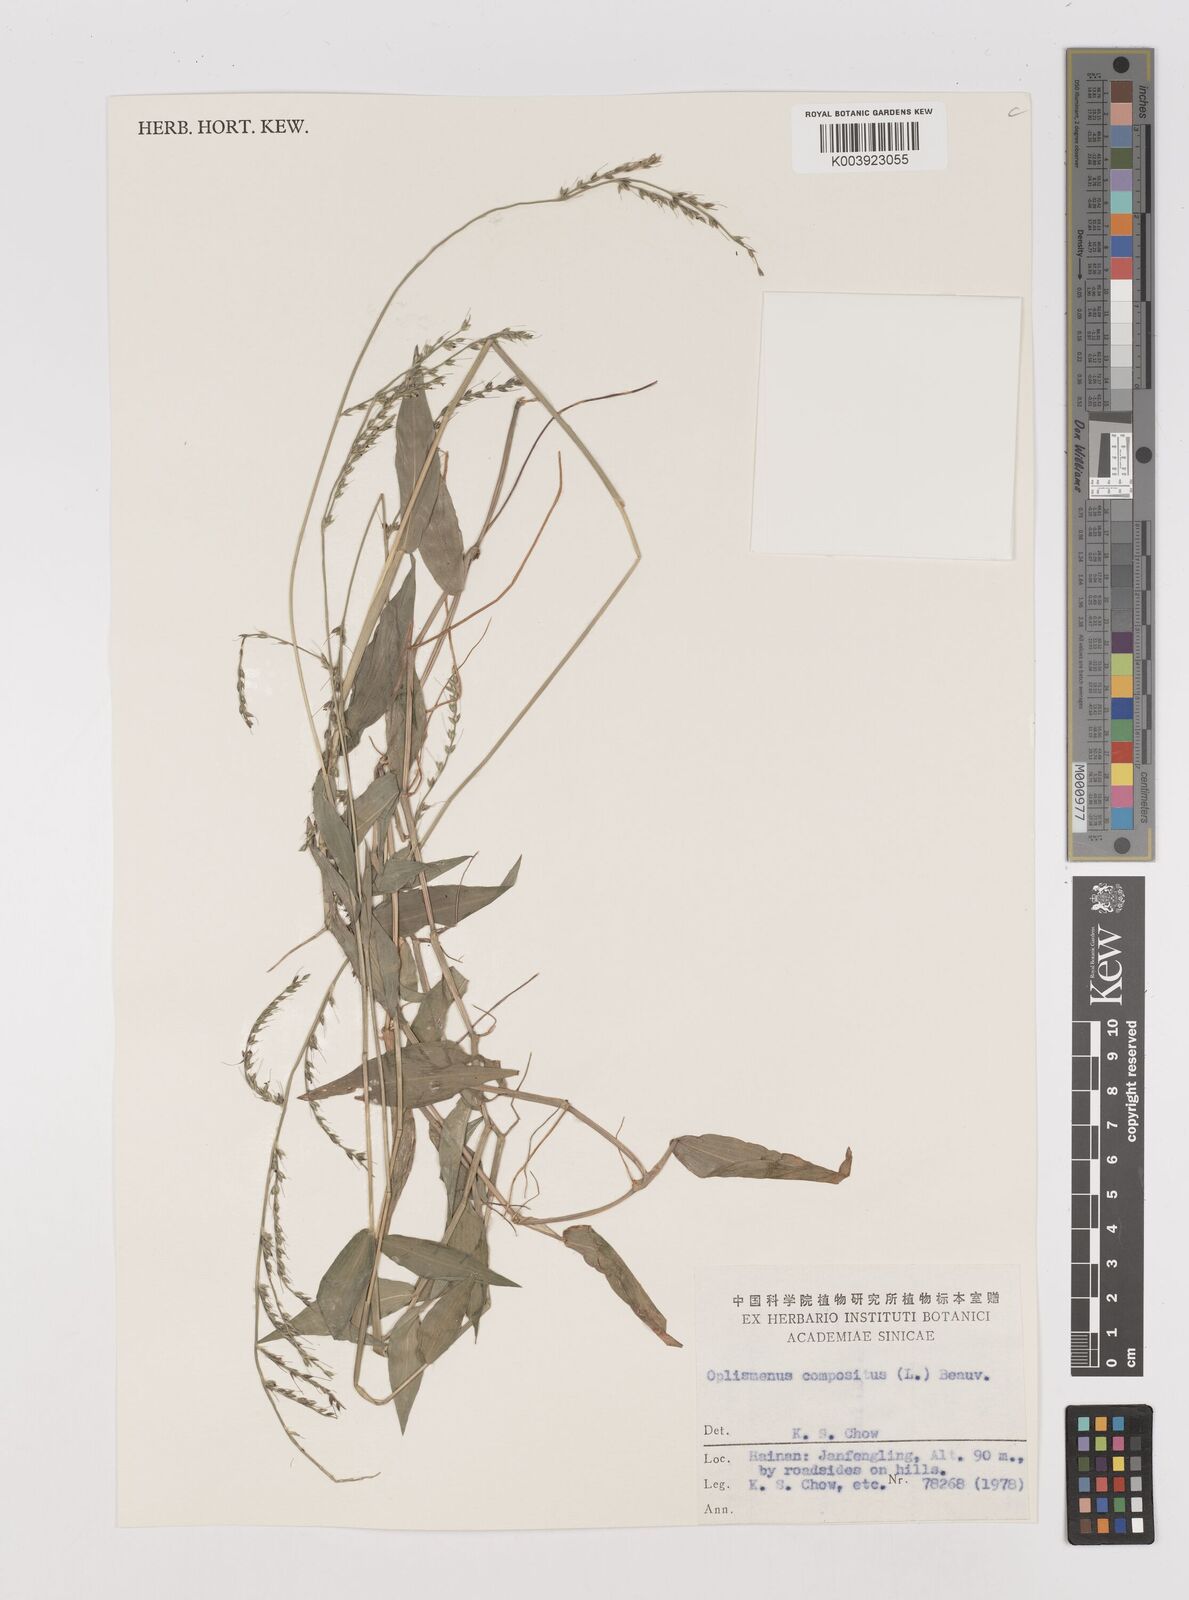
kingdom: Plantae
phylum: Tracheophyta
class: Liliopsida
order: Poales
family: Poaceae
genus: Oplismenus
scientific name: Oplismenus compositus
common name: Running mountain grass
